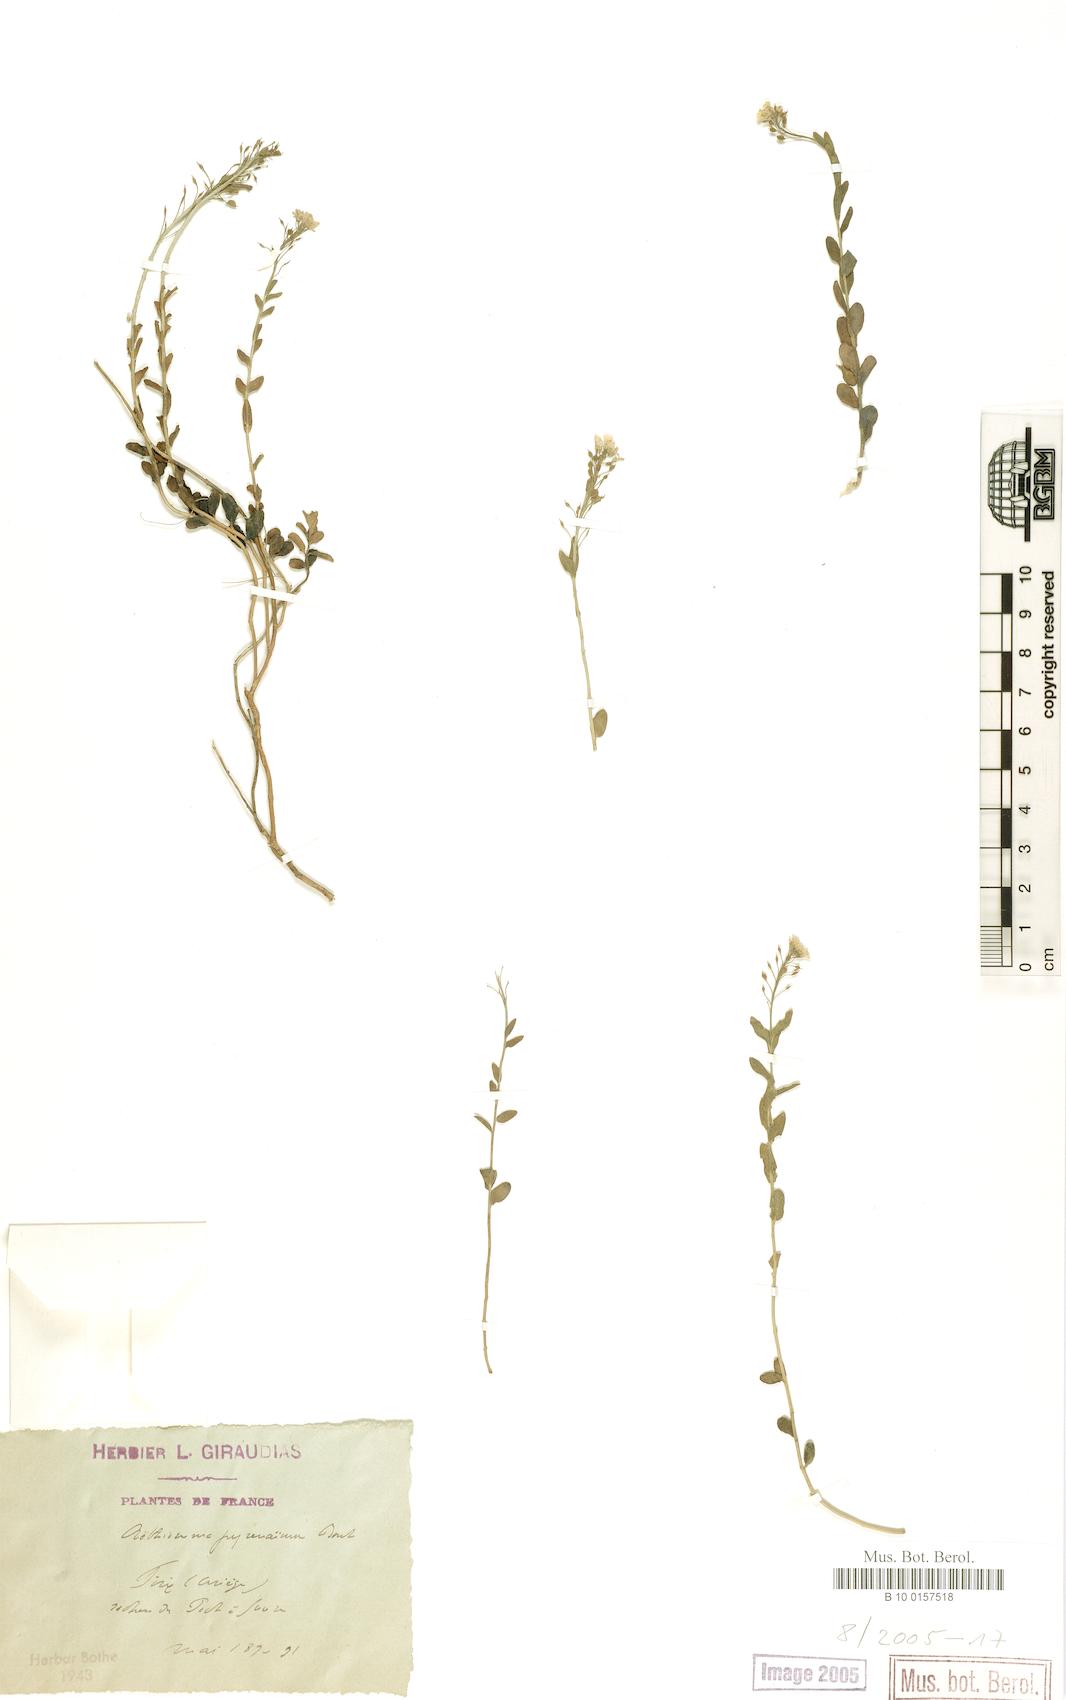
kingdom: Plantae
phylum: Tracheophyta
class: Magnoliopsida
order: Brassicales
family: Brassicaceae
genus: Aethionema
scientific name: Aethionema saxatile
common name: Burnt candytuft
